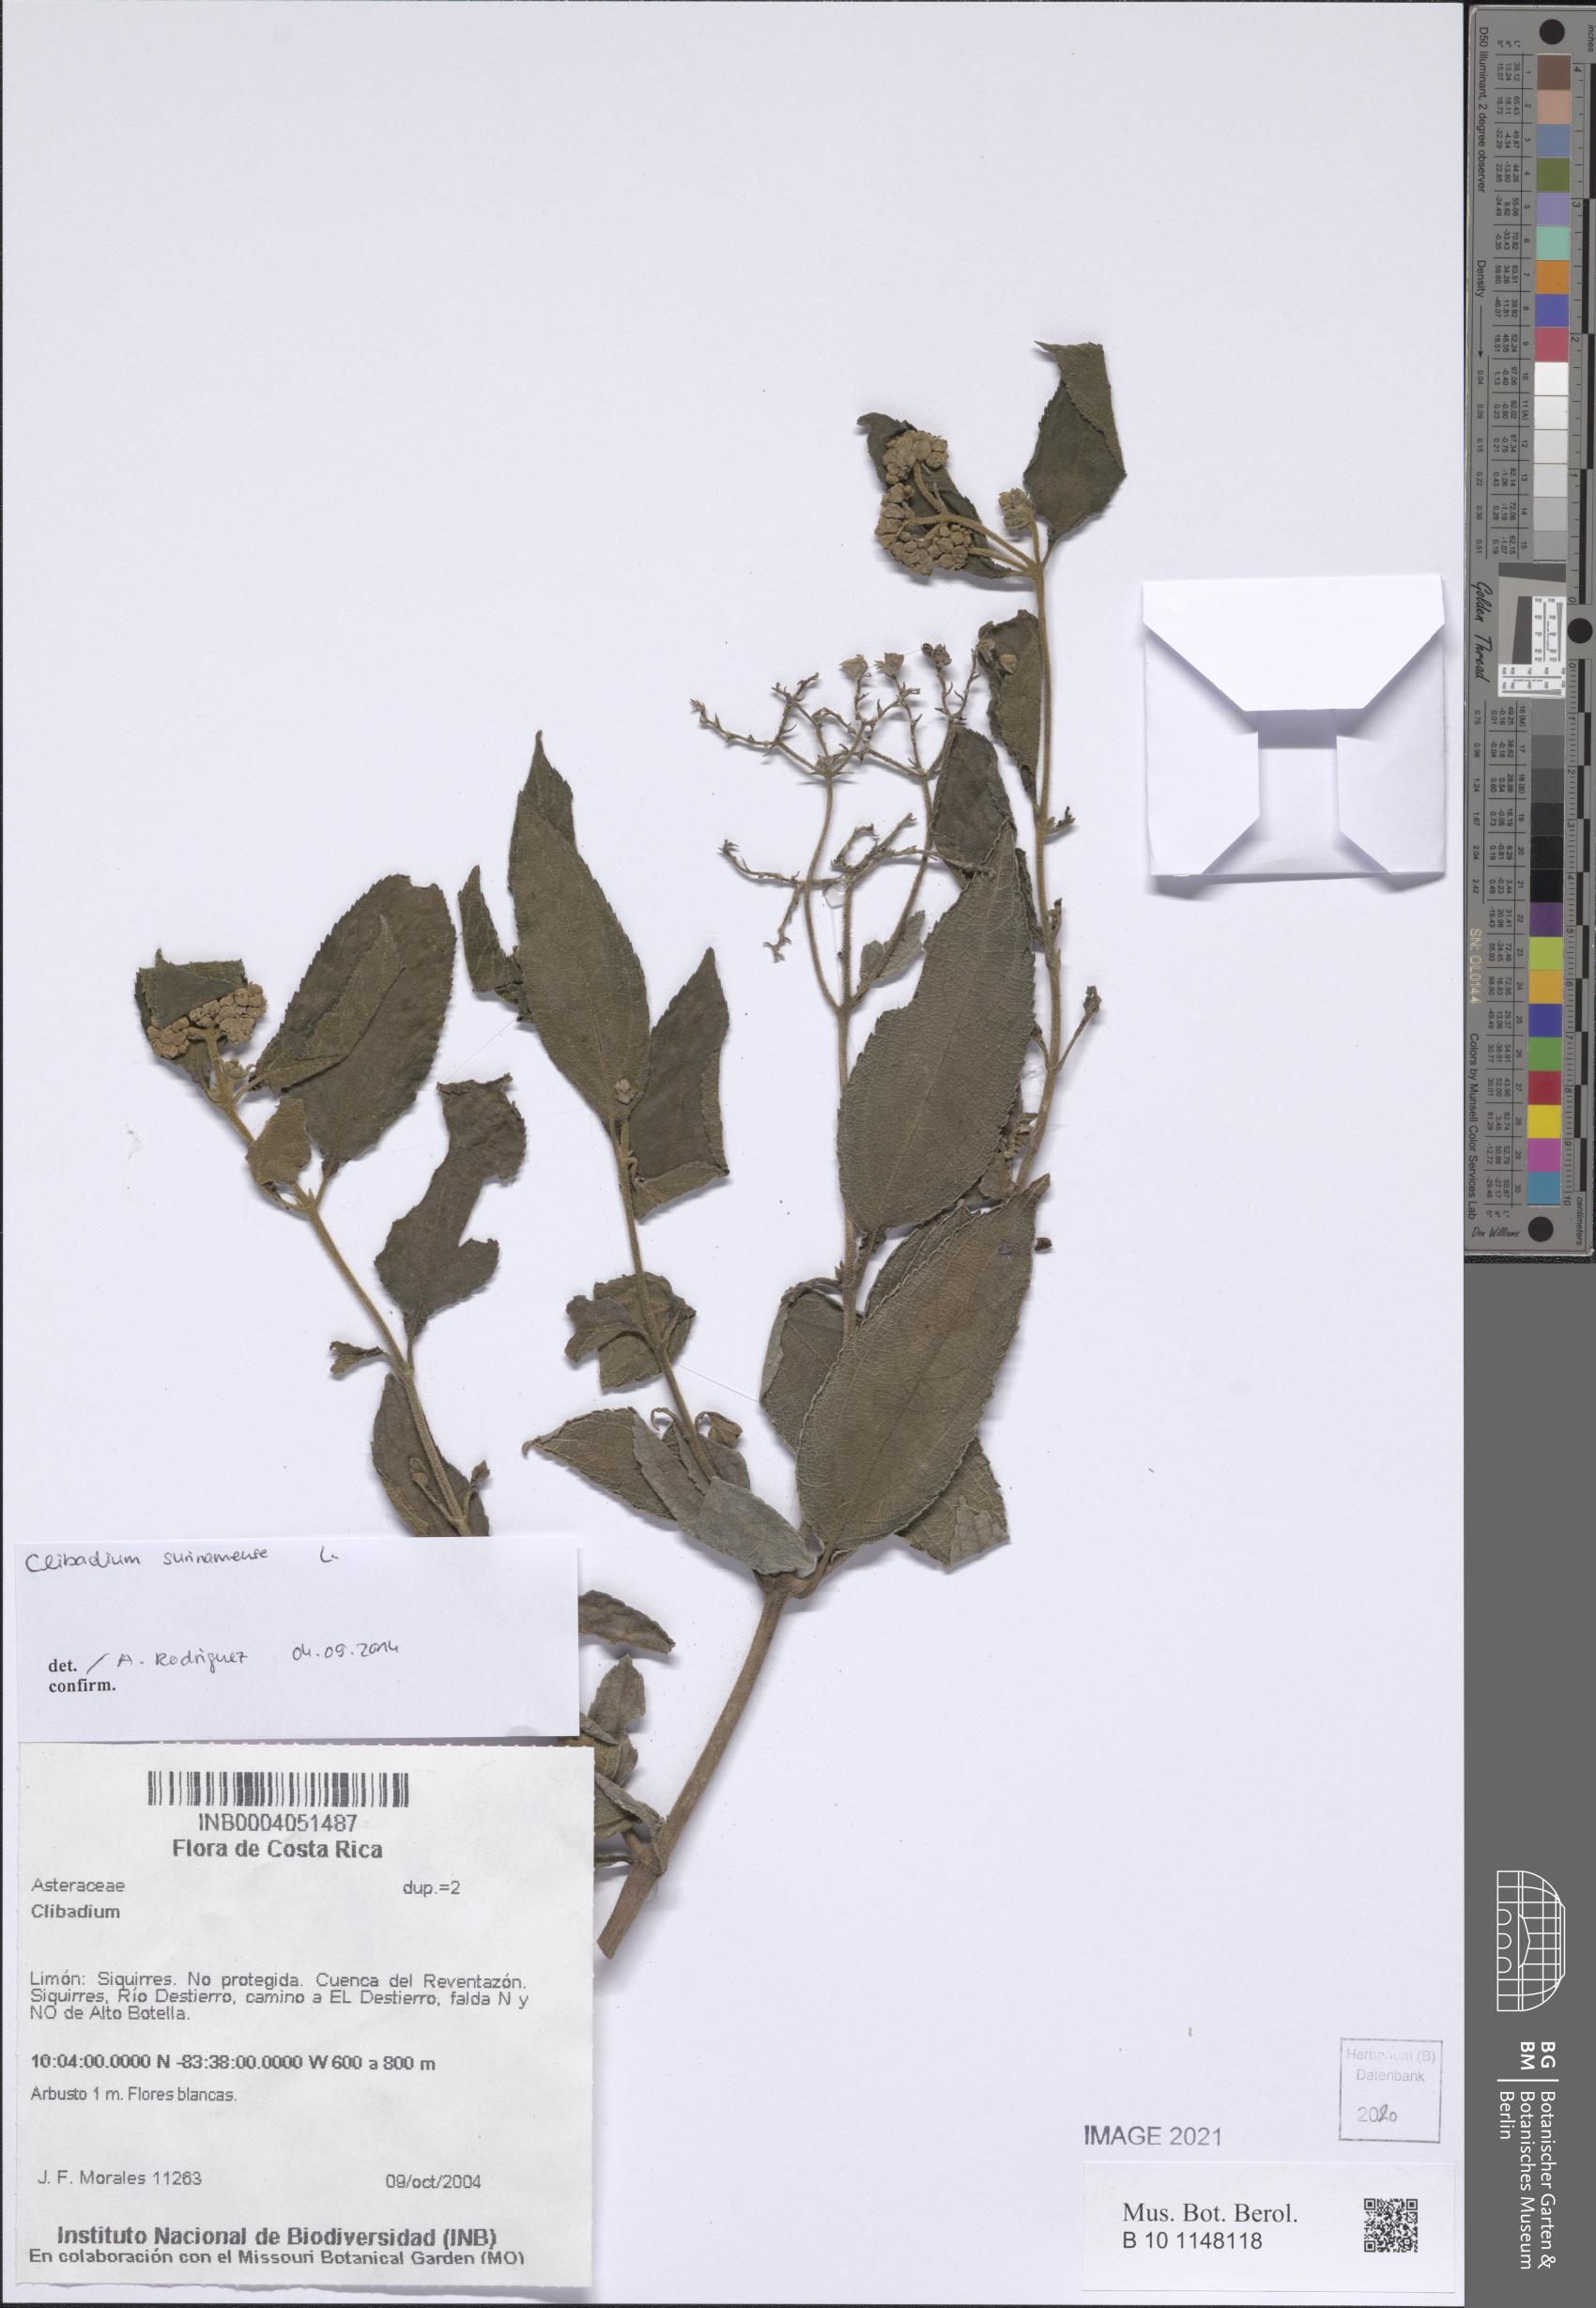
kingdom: Plantae
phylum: Tracheophyta
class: Magnoliopsida
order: Asterales
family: Asteraceae
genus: Clibadium
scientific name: Clibadium surinamense
